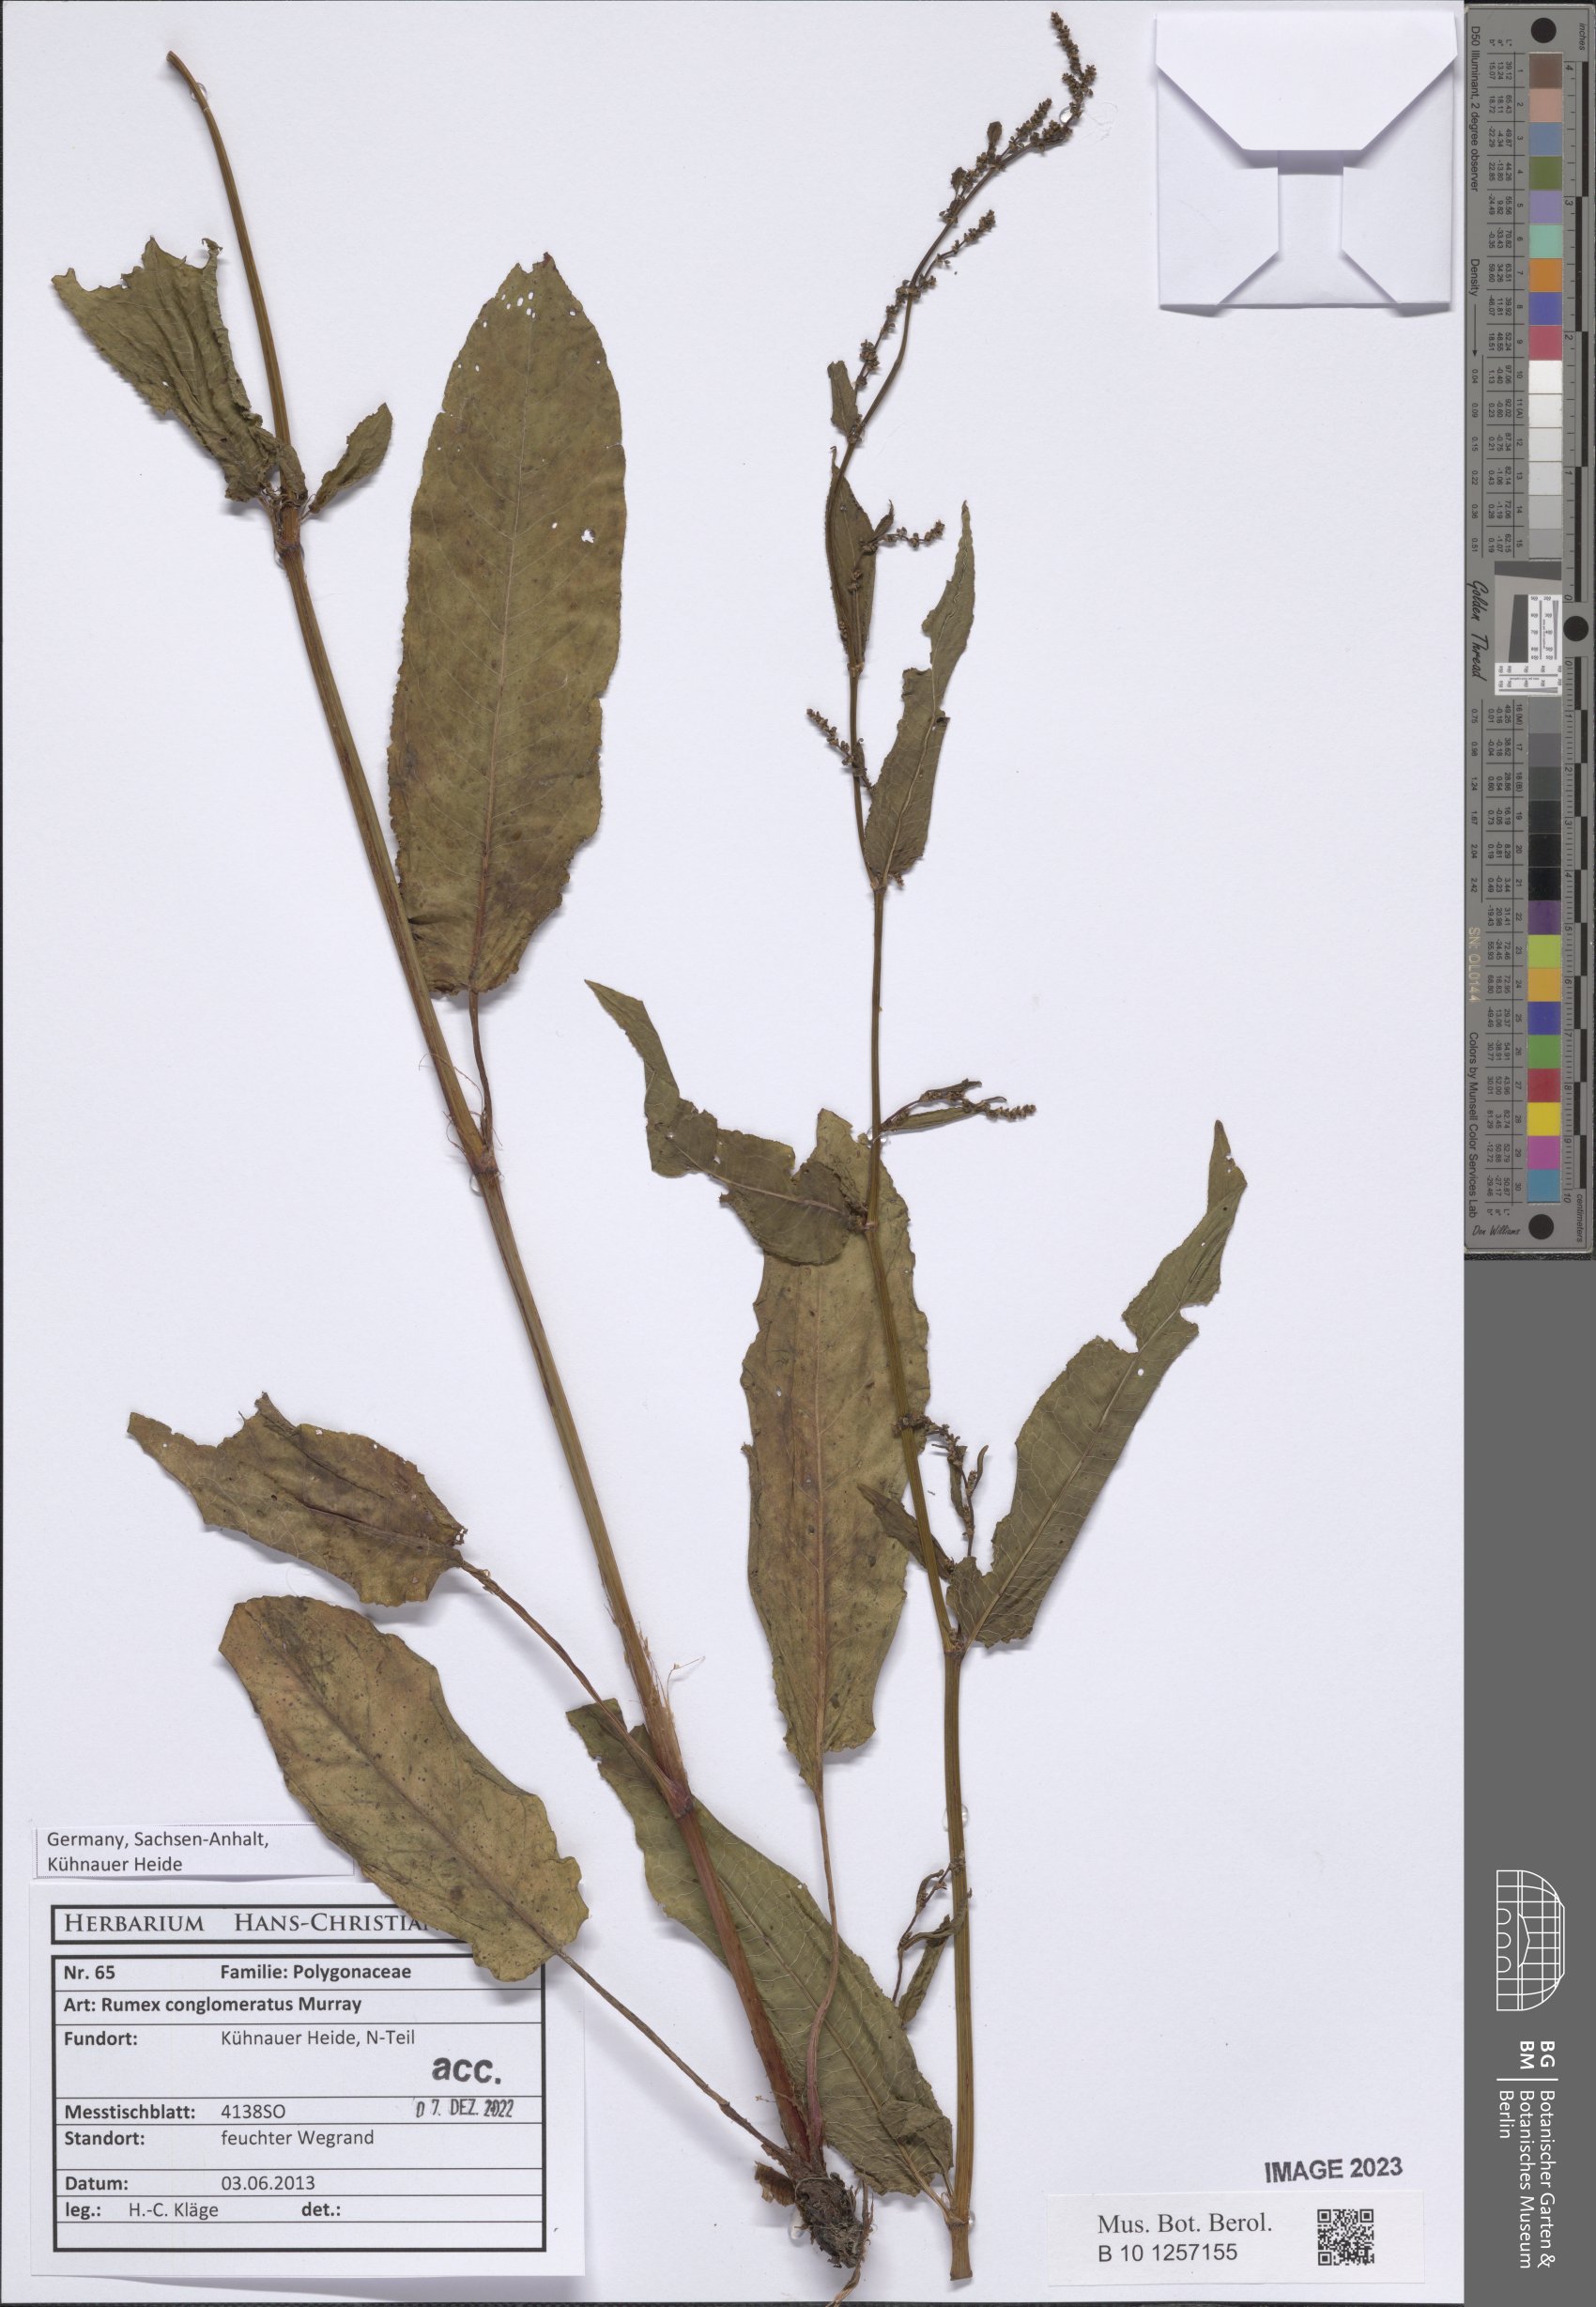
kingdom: Plantae
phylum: Tracheophyta
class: Magnoliopsida
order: Caryophyllales
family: Polygonaceae
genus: Rumex
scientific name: Rumex conglomeratus
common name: Clustered dock
